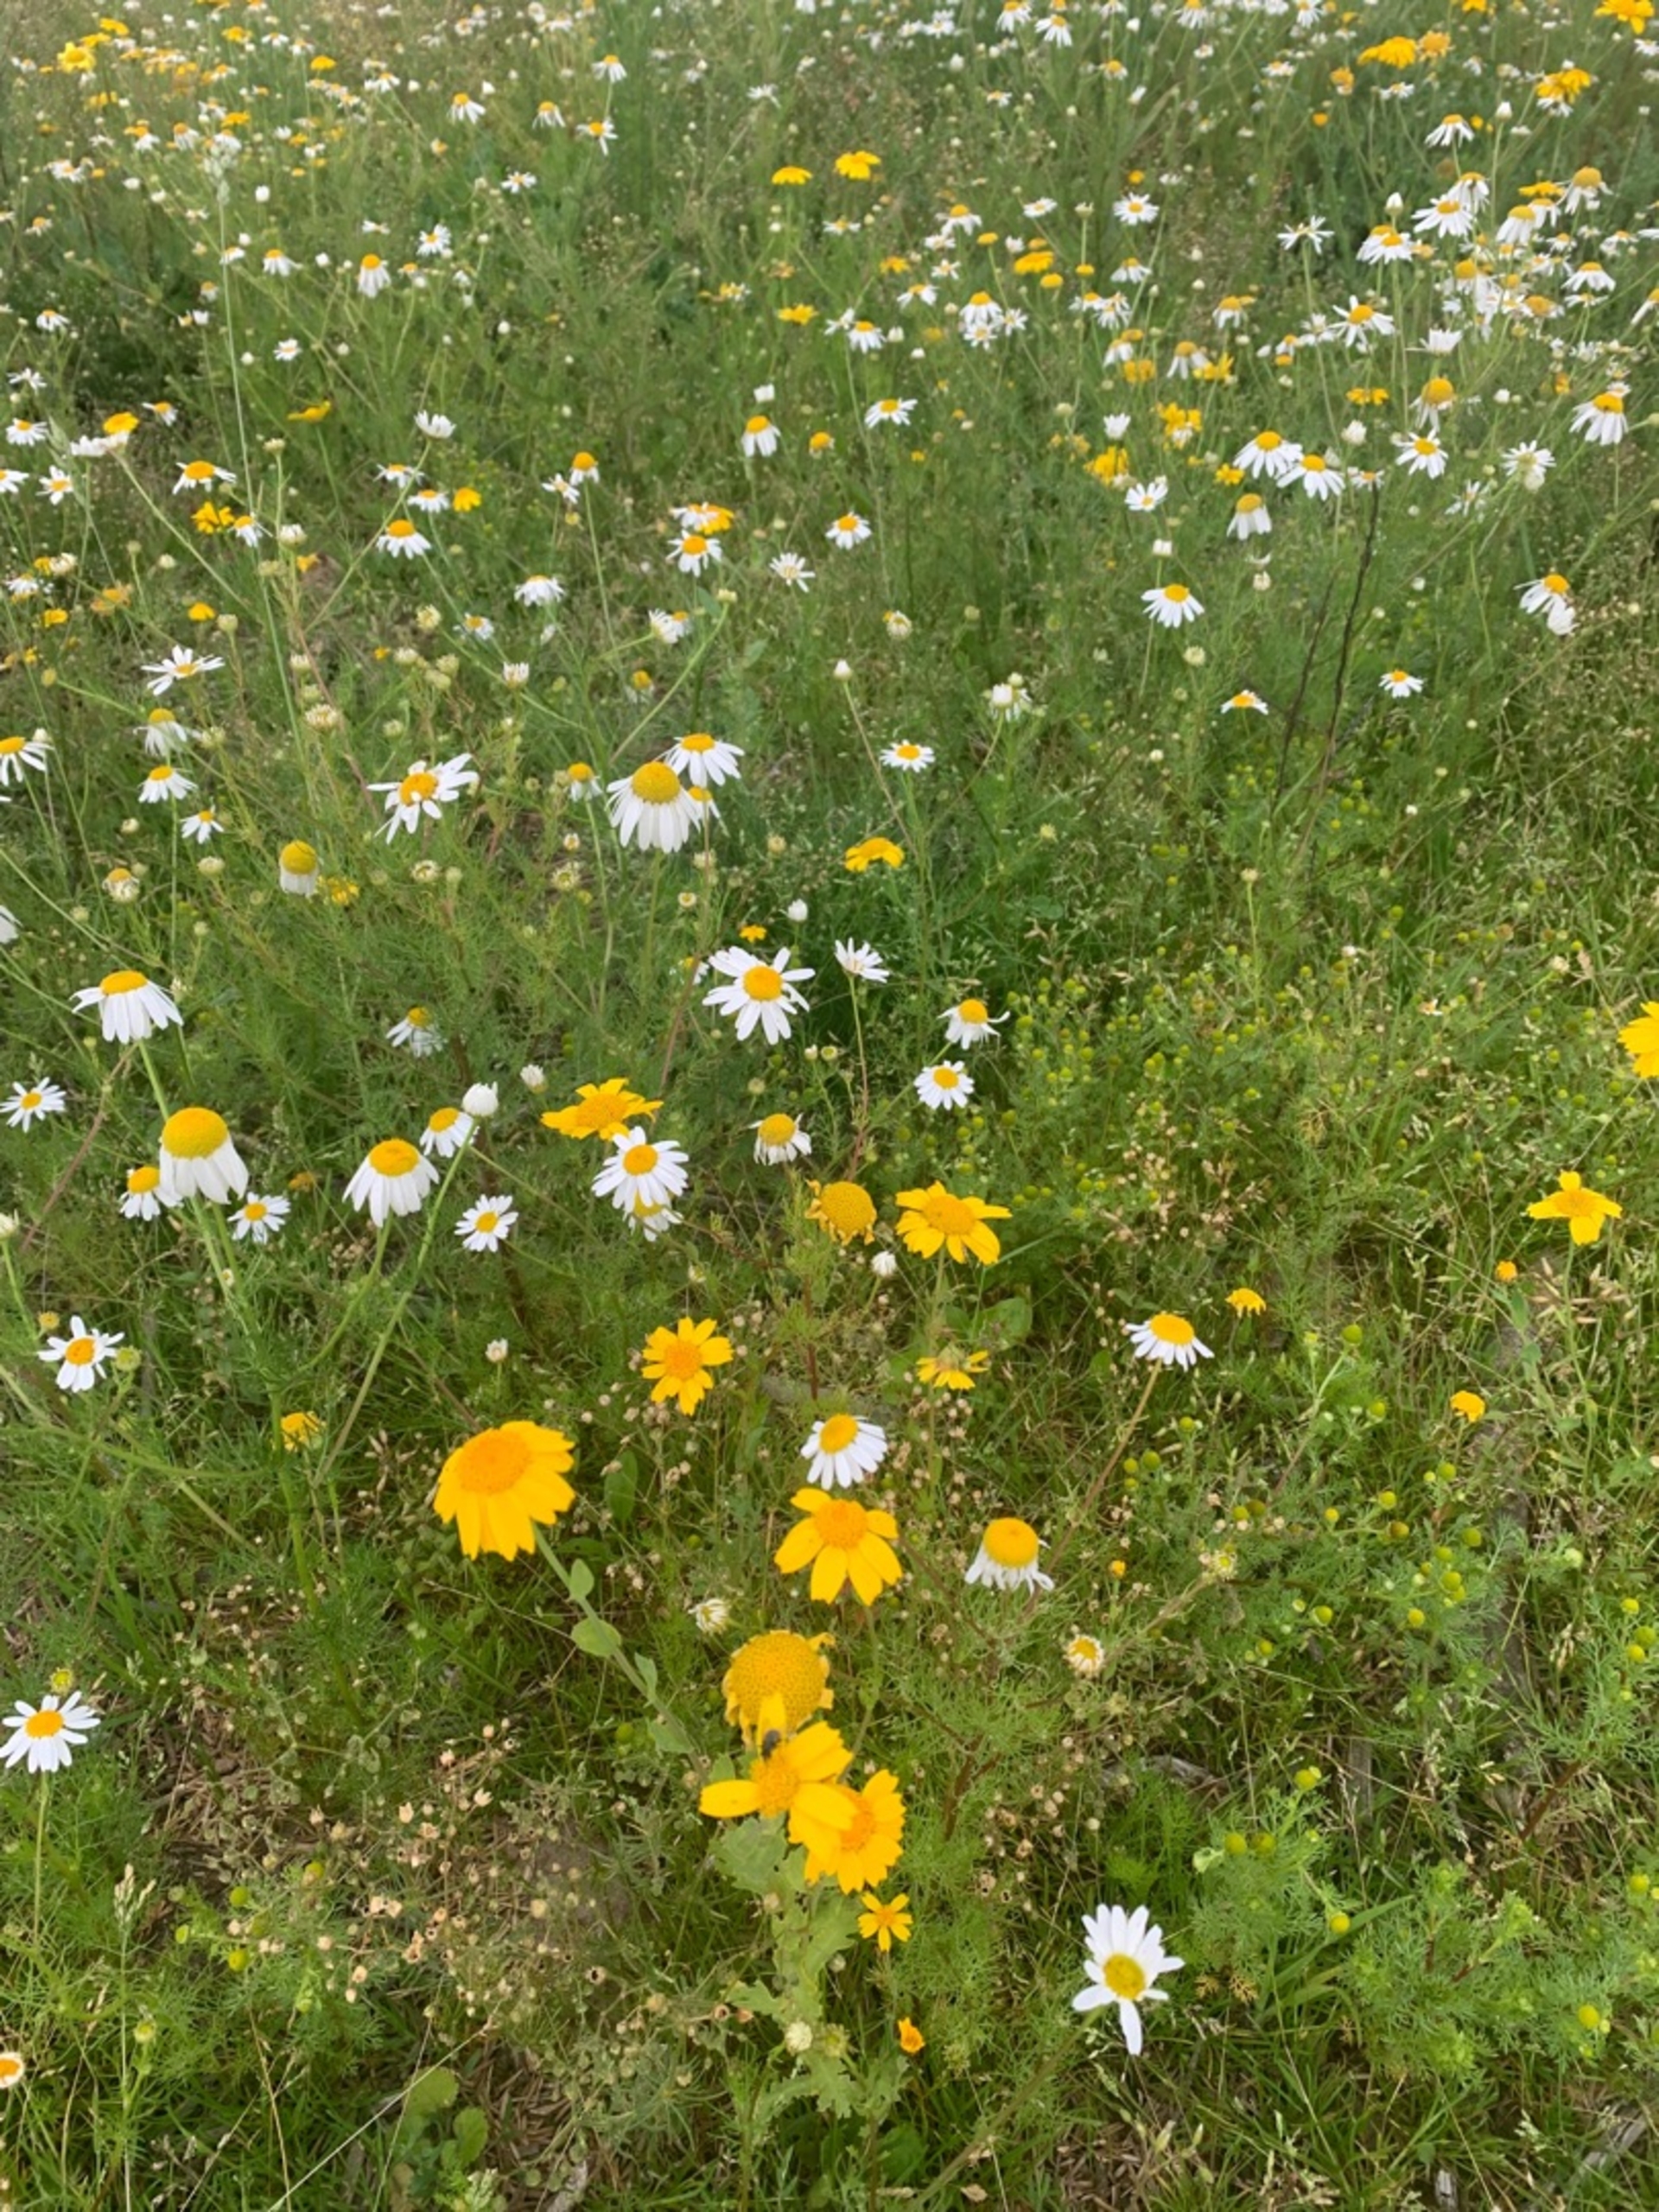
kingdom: Plantae
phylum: Tracheophyta
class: Magnoliopsida
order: Asterales
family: Asteraceae
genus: Tripleurospermum
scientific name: Tripleurospermum inodorum
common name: Lugtløs kamille
